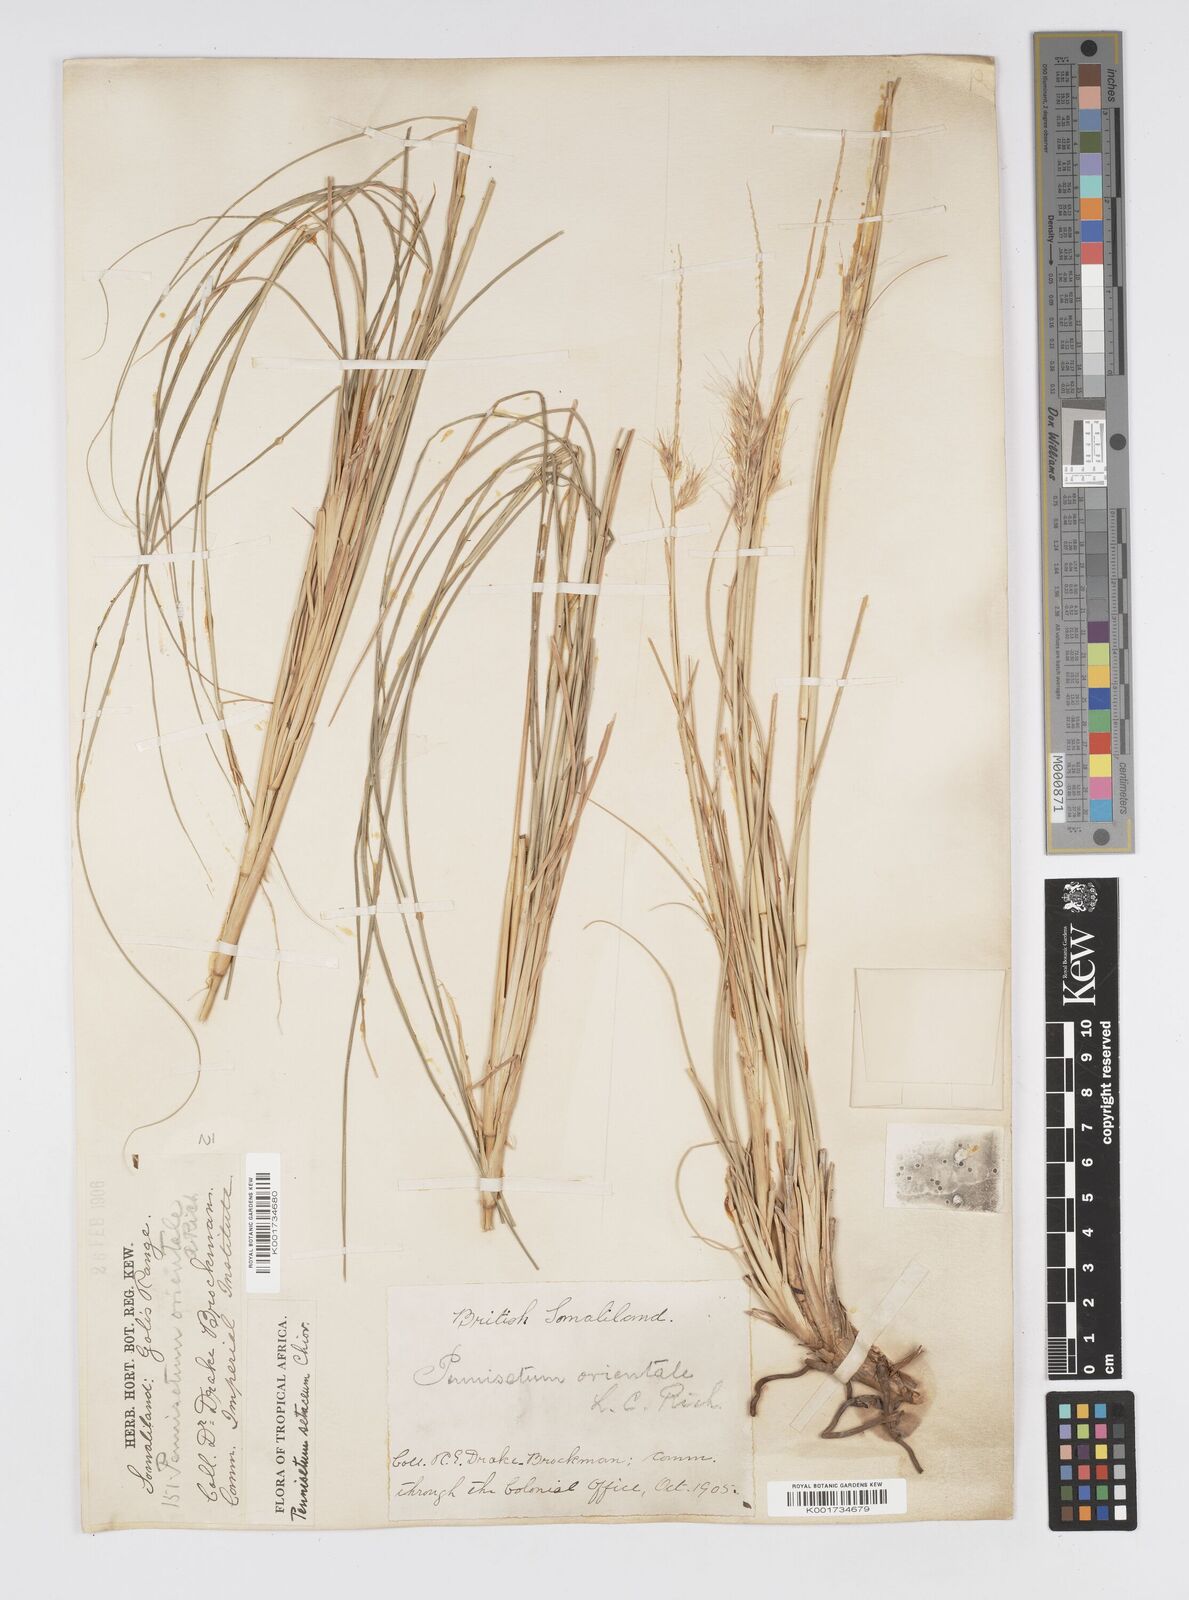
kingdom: Plantae
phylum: Tracheophyta
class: Liliopsida
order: Poales
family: Poaceae
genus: Cenchrus
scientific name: Cenchrus setaceus
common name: Crimson fountaingrass
